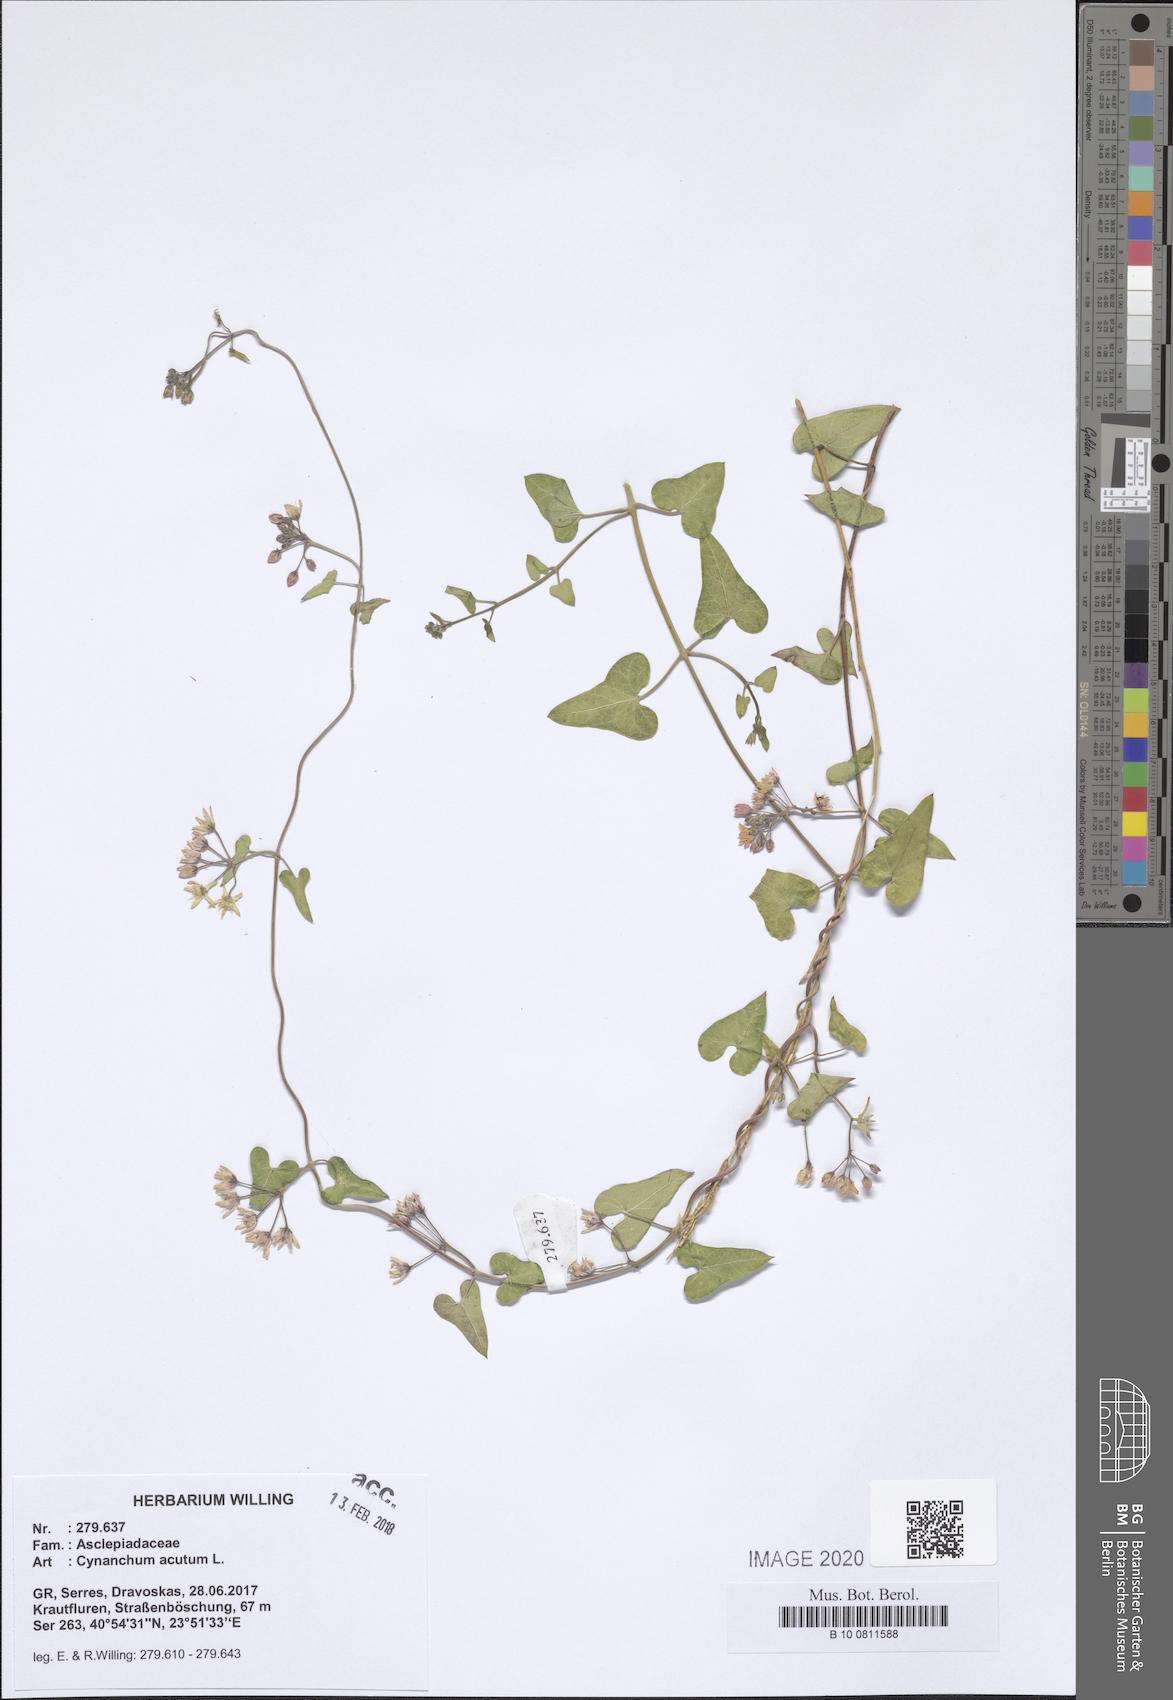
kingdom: Plantae
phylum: Tracheophyta
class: Magnoliopsida
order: Gentianales
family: Apocynaceae
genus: Cynanchum
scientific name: Cynanchum acutum
